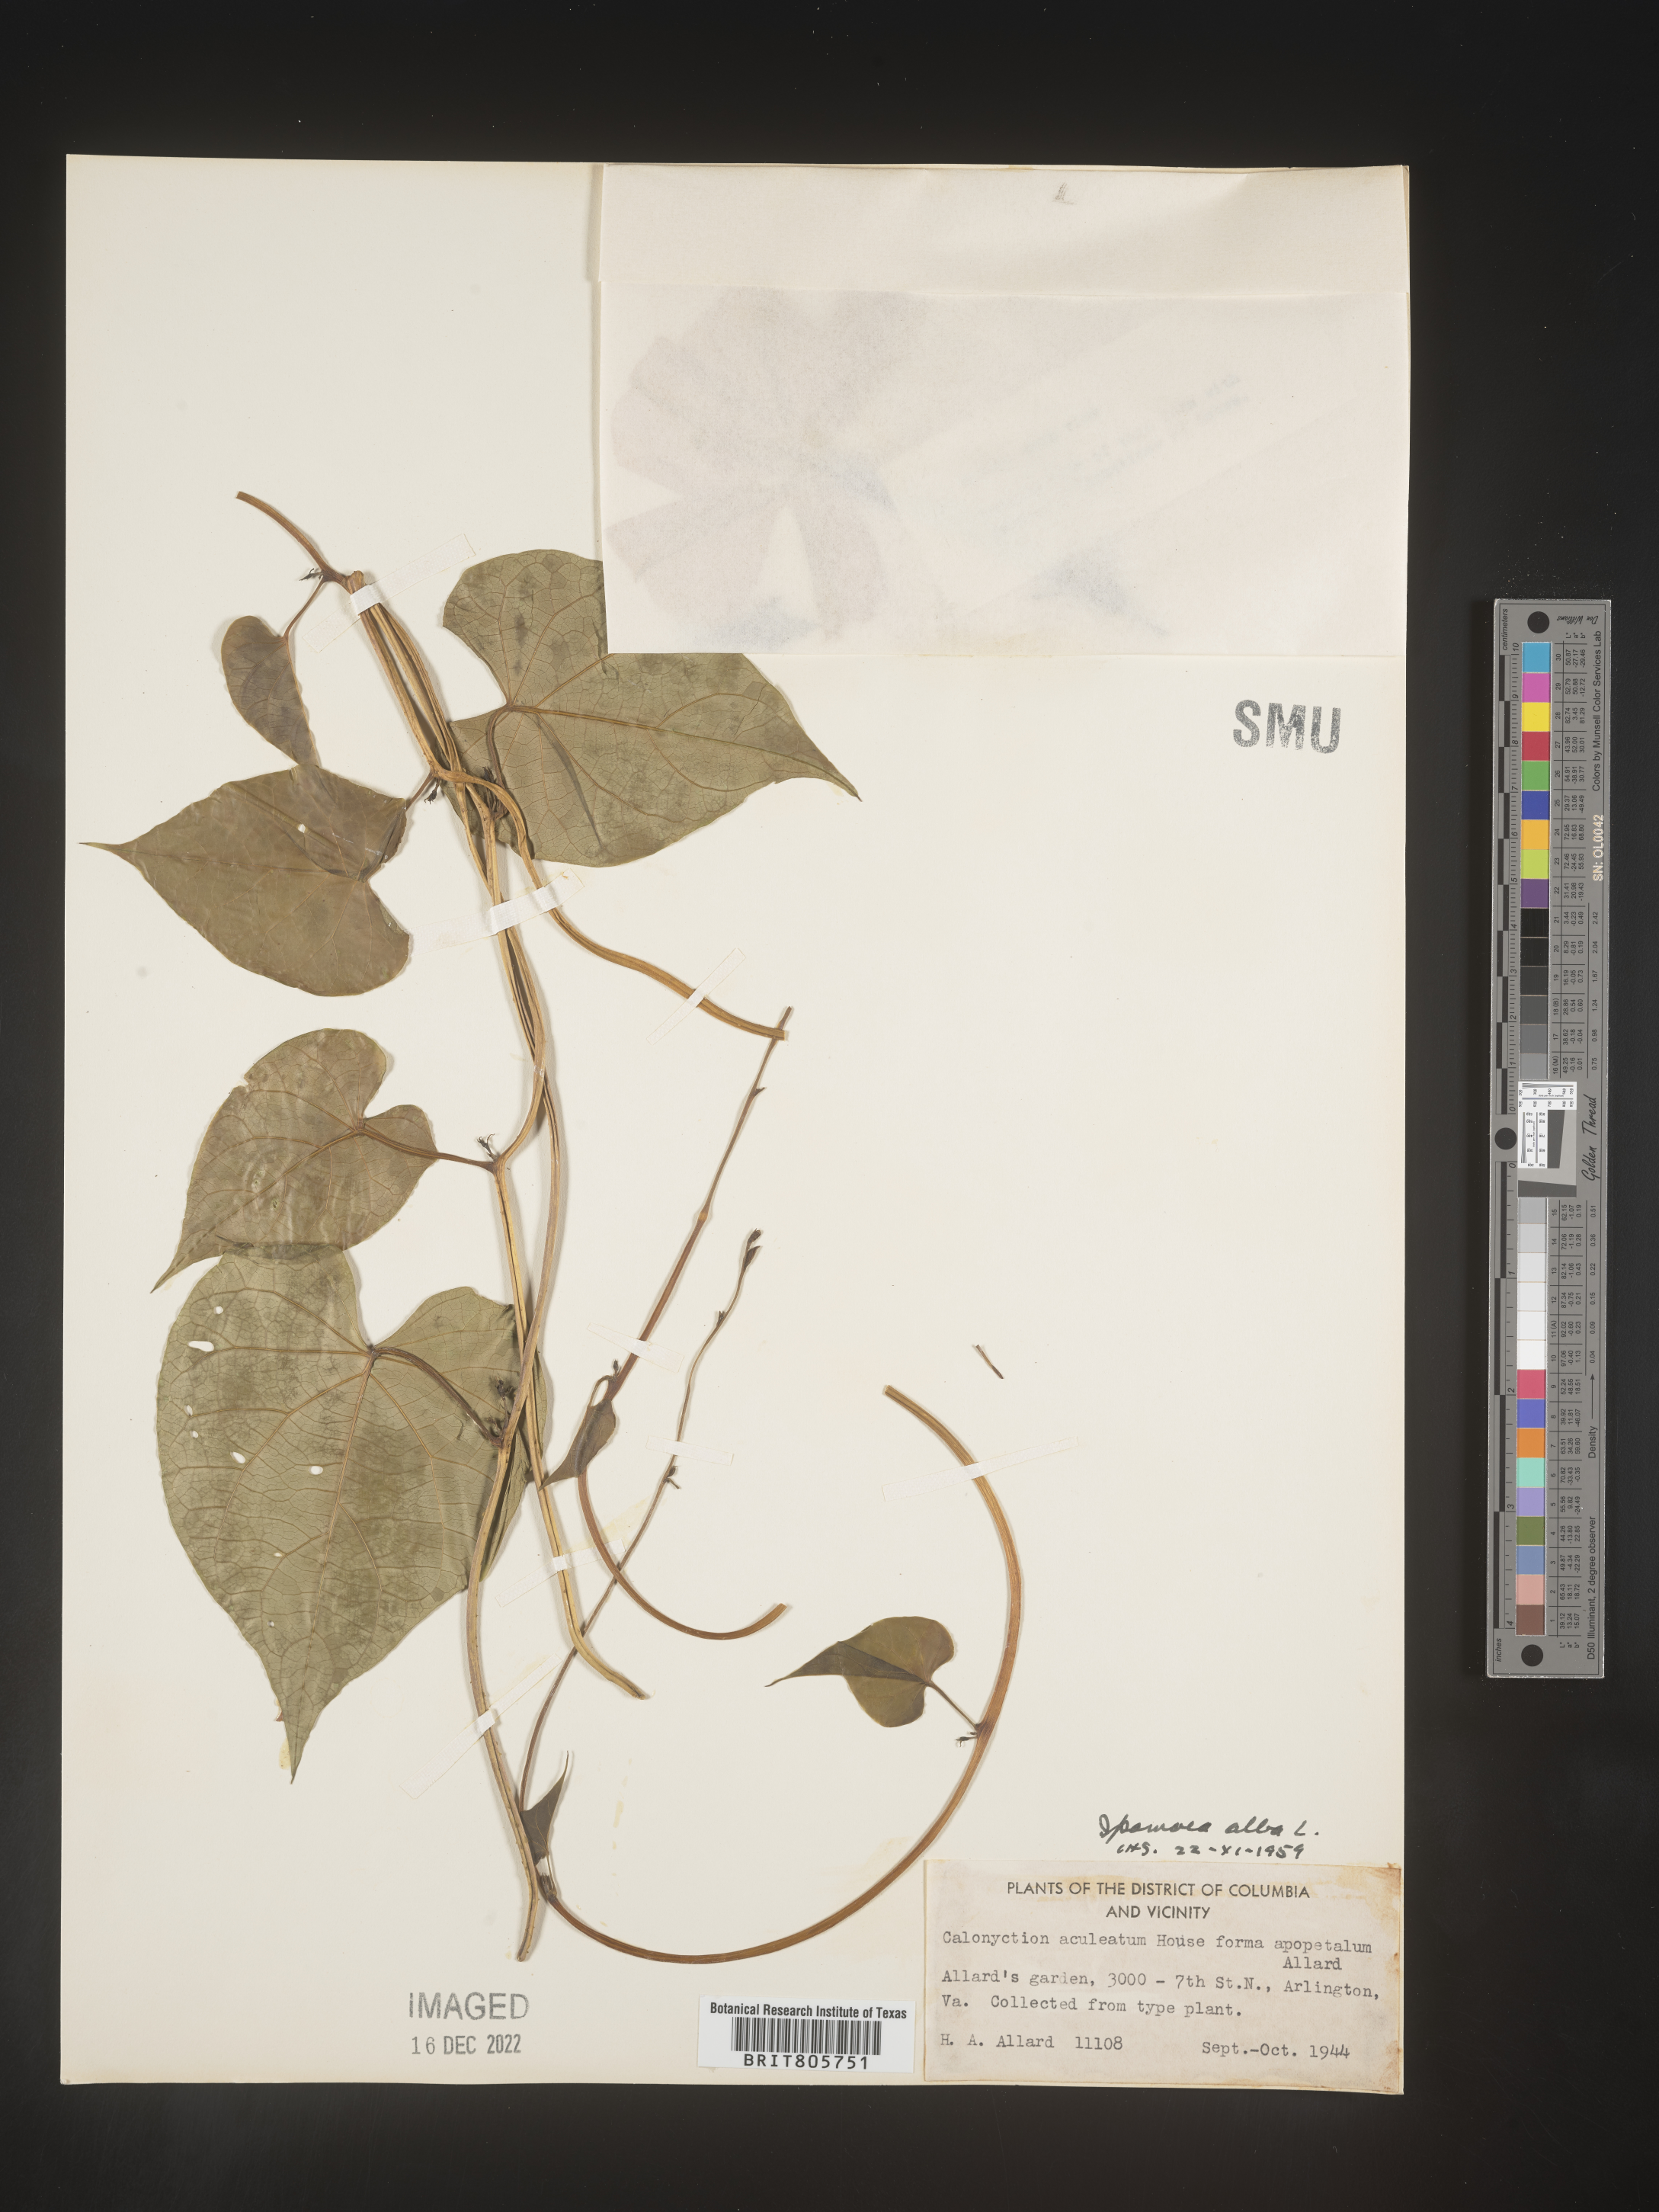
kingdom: Plantae
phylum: Tracheophyta
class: Magnoliopsida
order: Solanales
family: Convolvulaceae
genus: Ipomoea
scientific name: Ipomoea alba
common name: Moonflower
